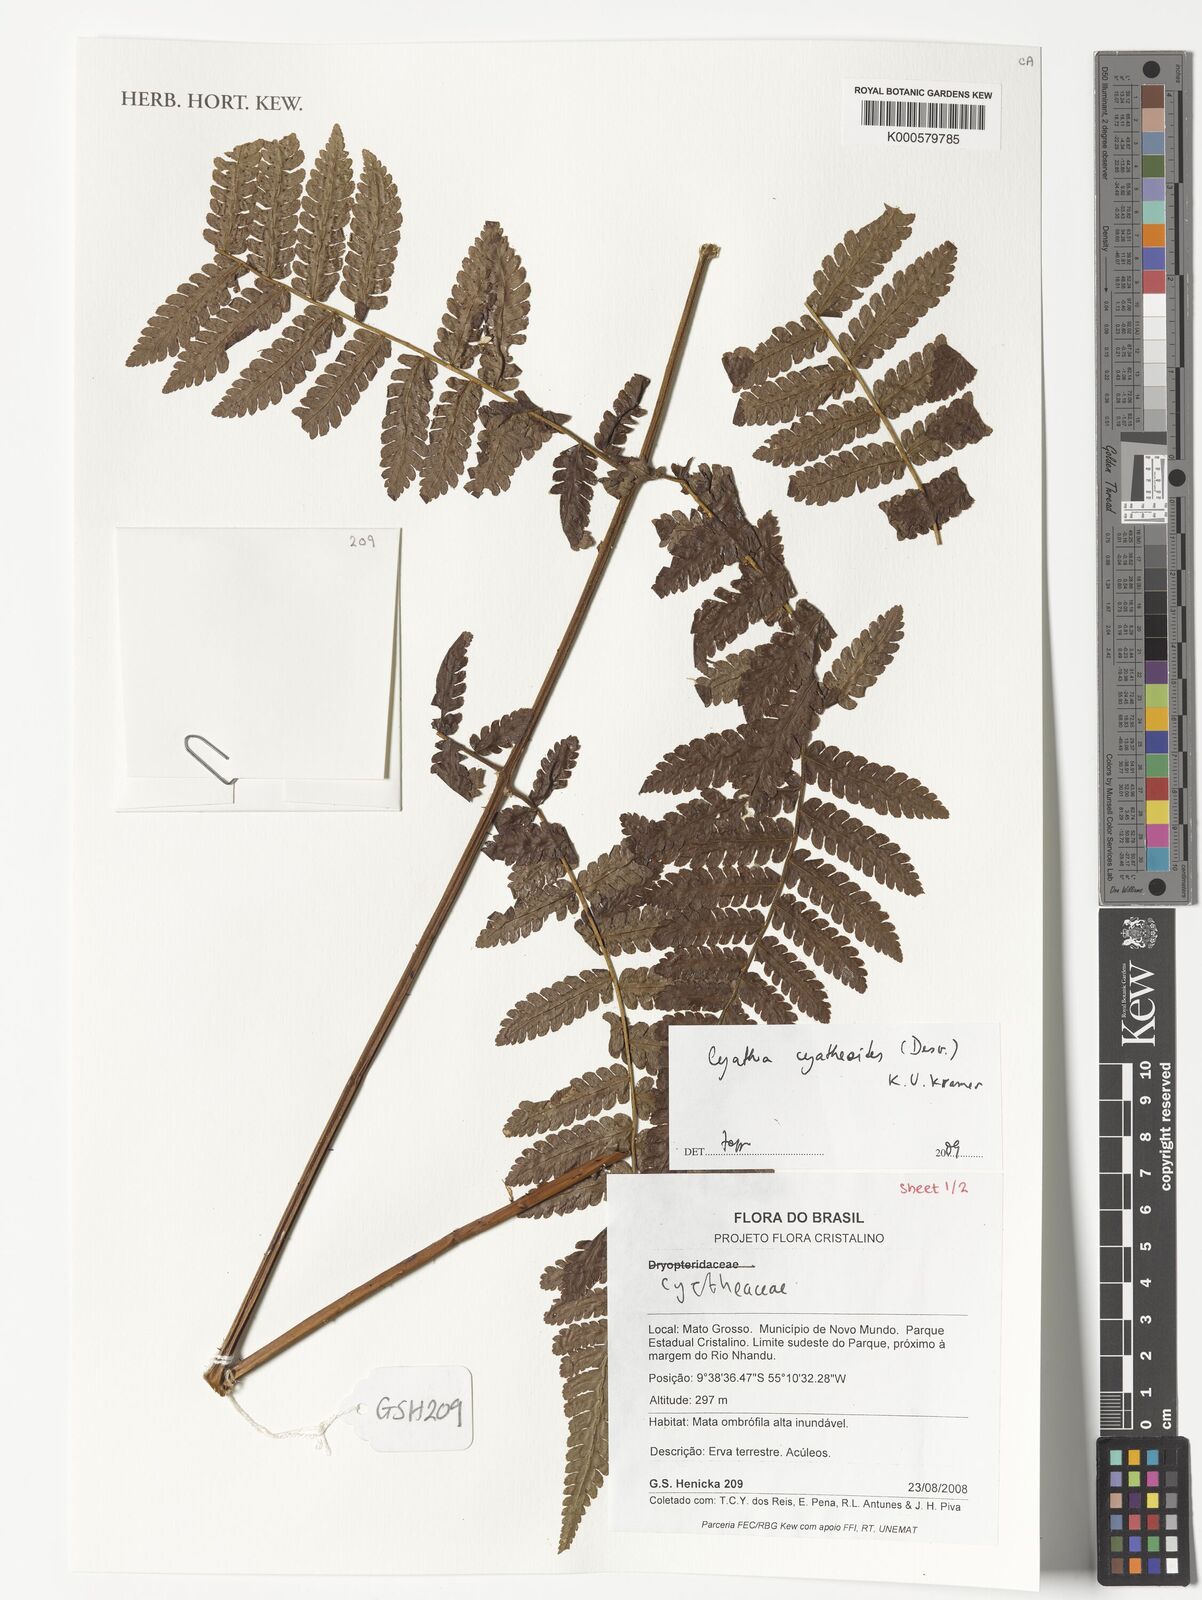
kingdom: Plantae
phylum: Tracheophyta
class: Polypodiopsida
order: Cyatheales
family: Cyatheaceae
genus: Cyathea
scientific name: Cyathea cyatheoides
